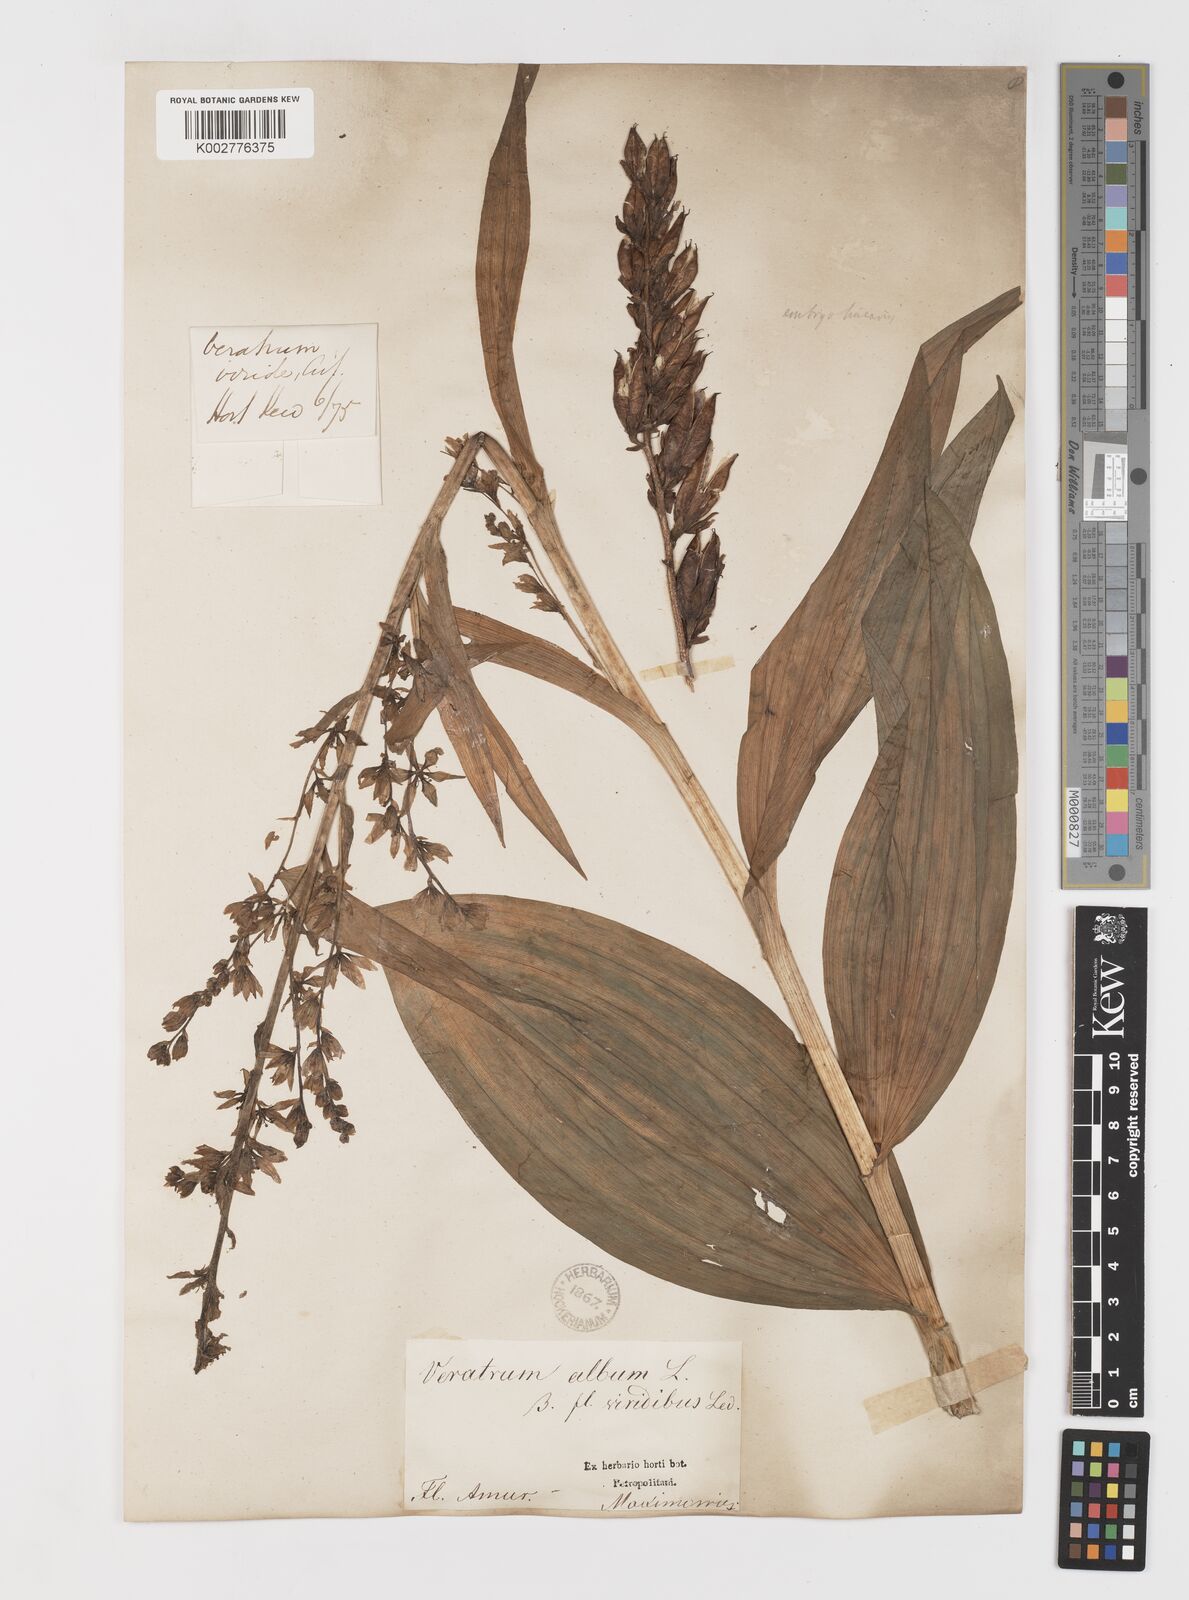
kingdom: Plantae
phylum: Tracheophyta
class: Liliopsida
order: Liliales
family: Melanthiaceae
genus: Veratrum
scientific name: Veratrum album
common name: White veratrum
